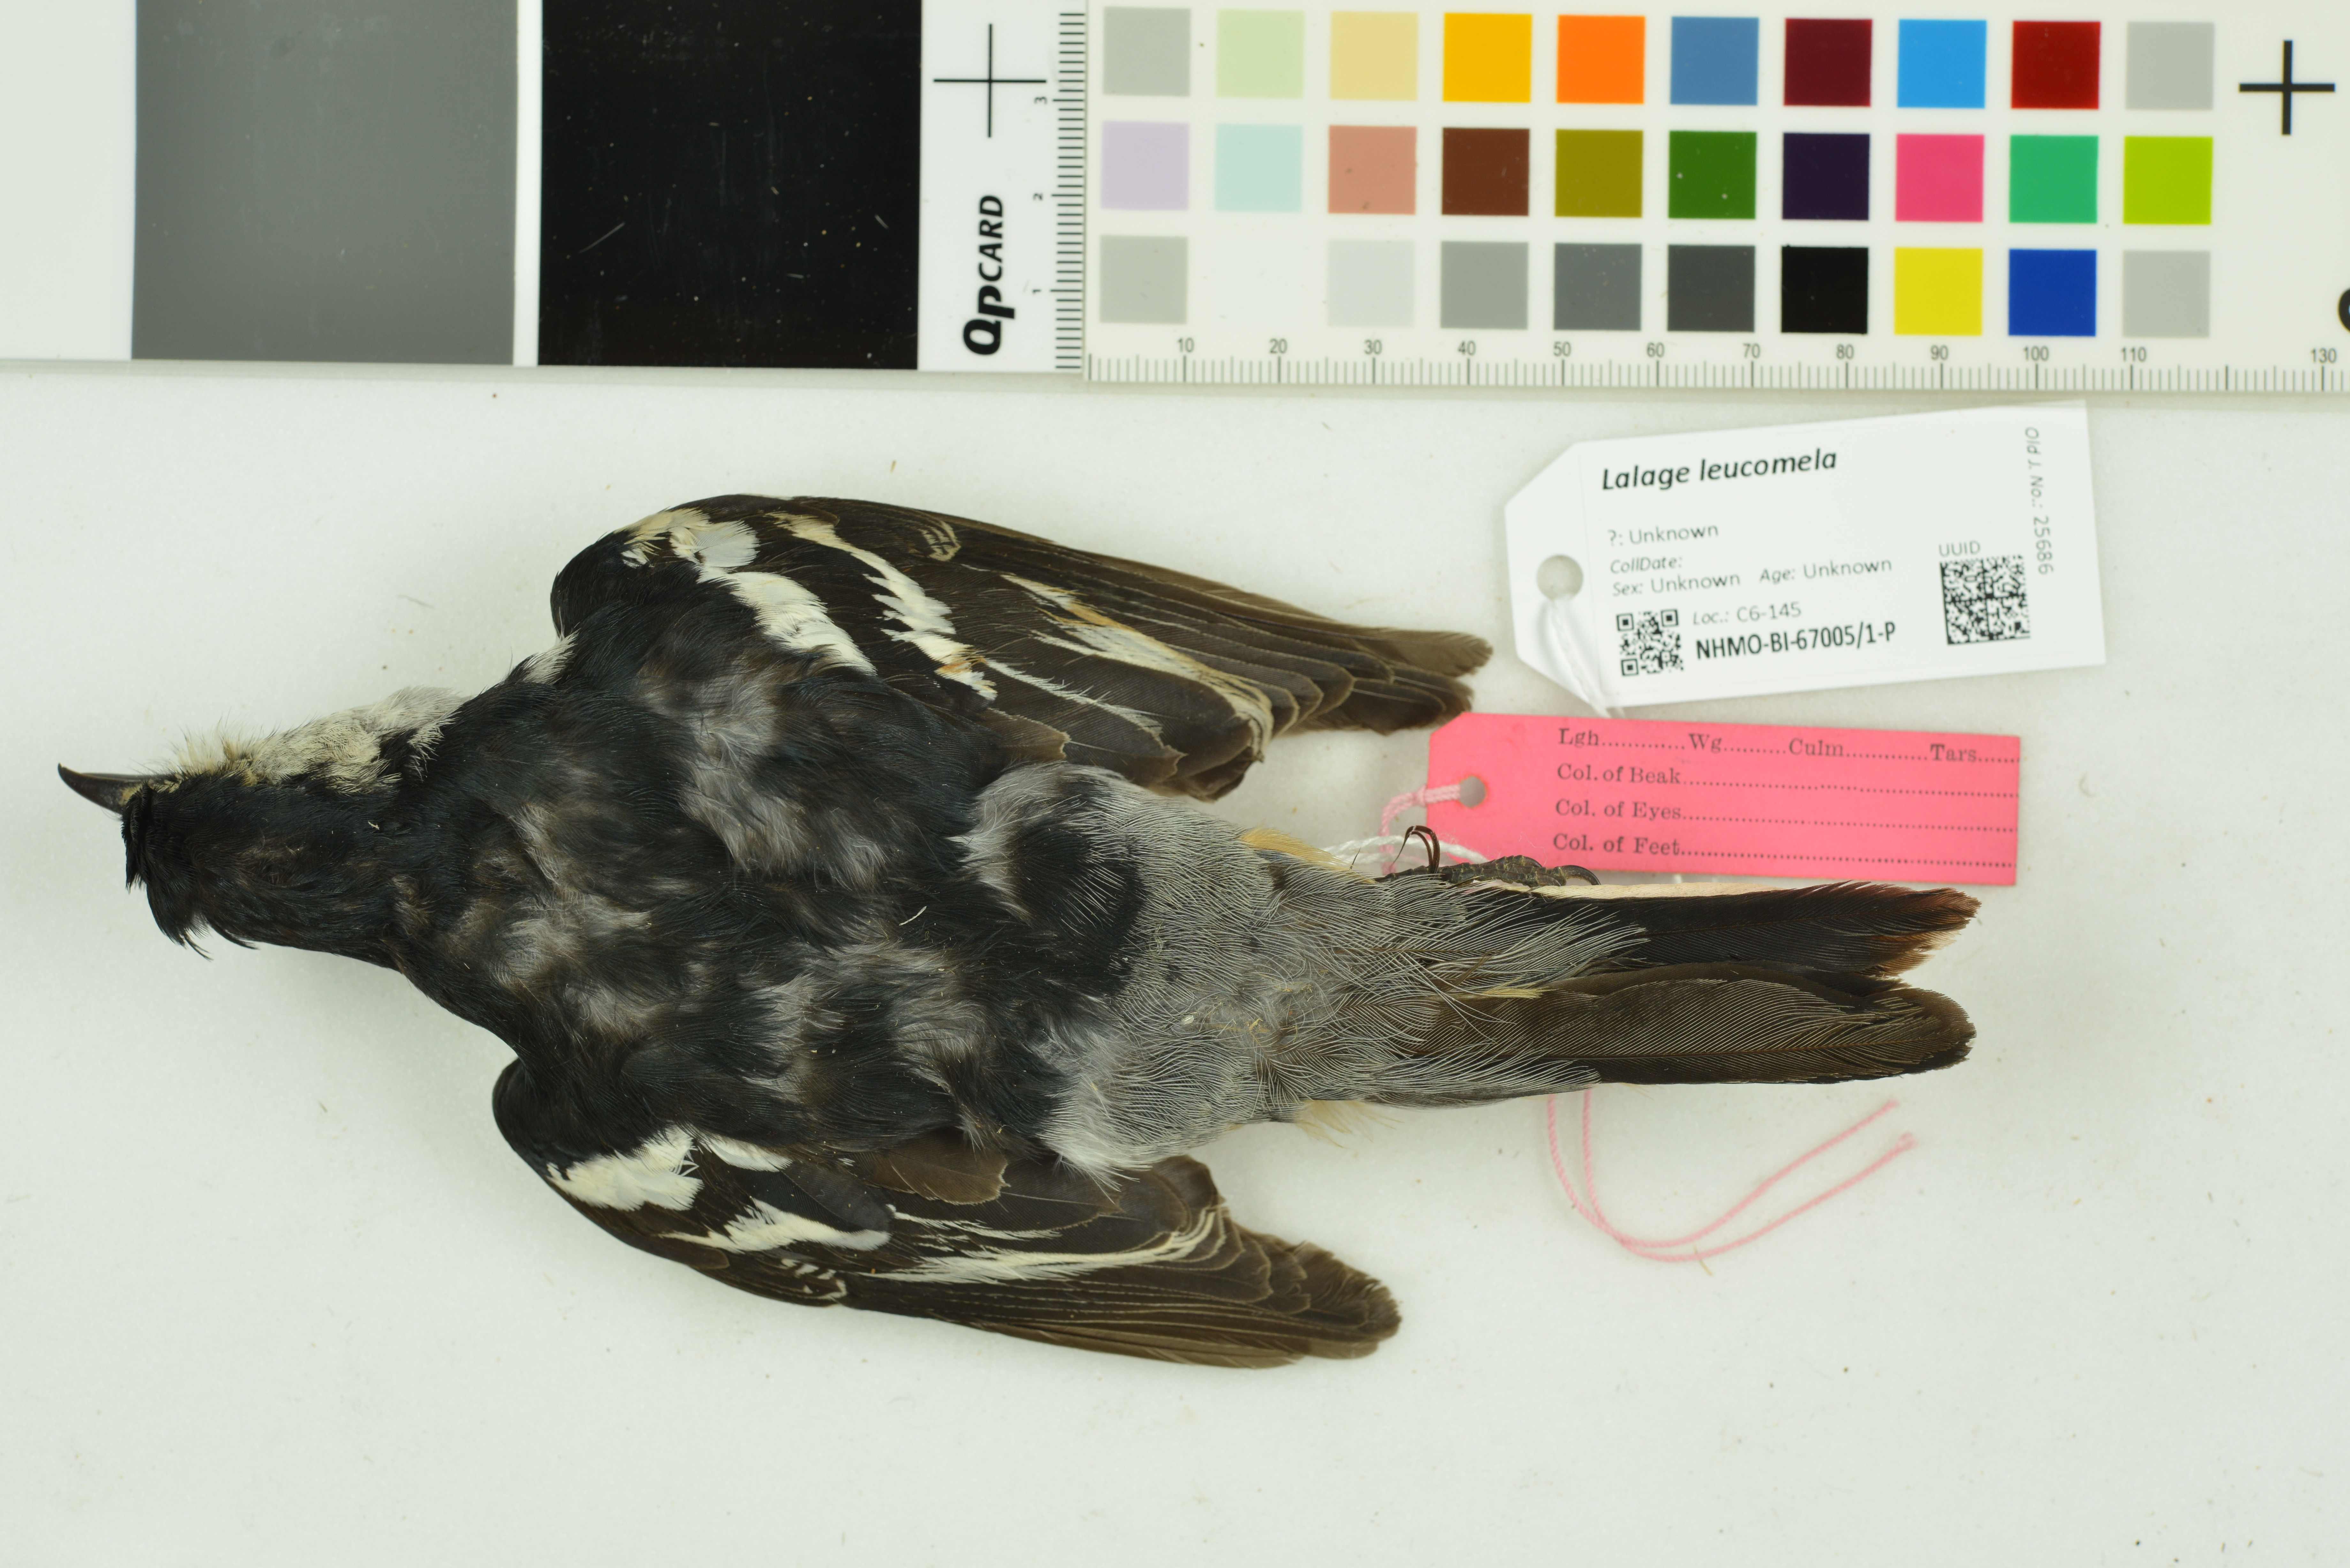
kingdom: Animalia
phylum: Chordata
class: Aves
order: Passeriformes
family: Campephagidae
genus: Lalage
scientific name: Lalage leucomela
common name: Varied triller
